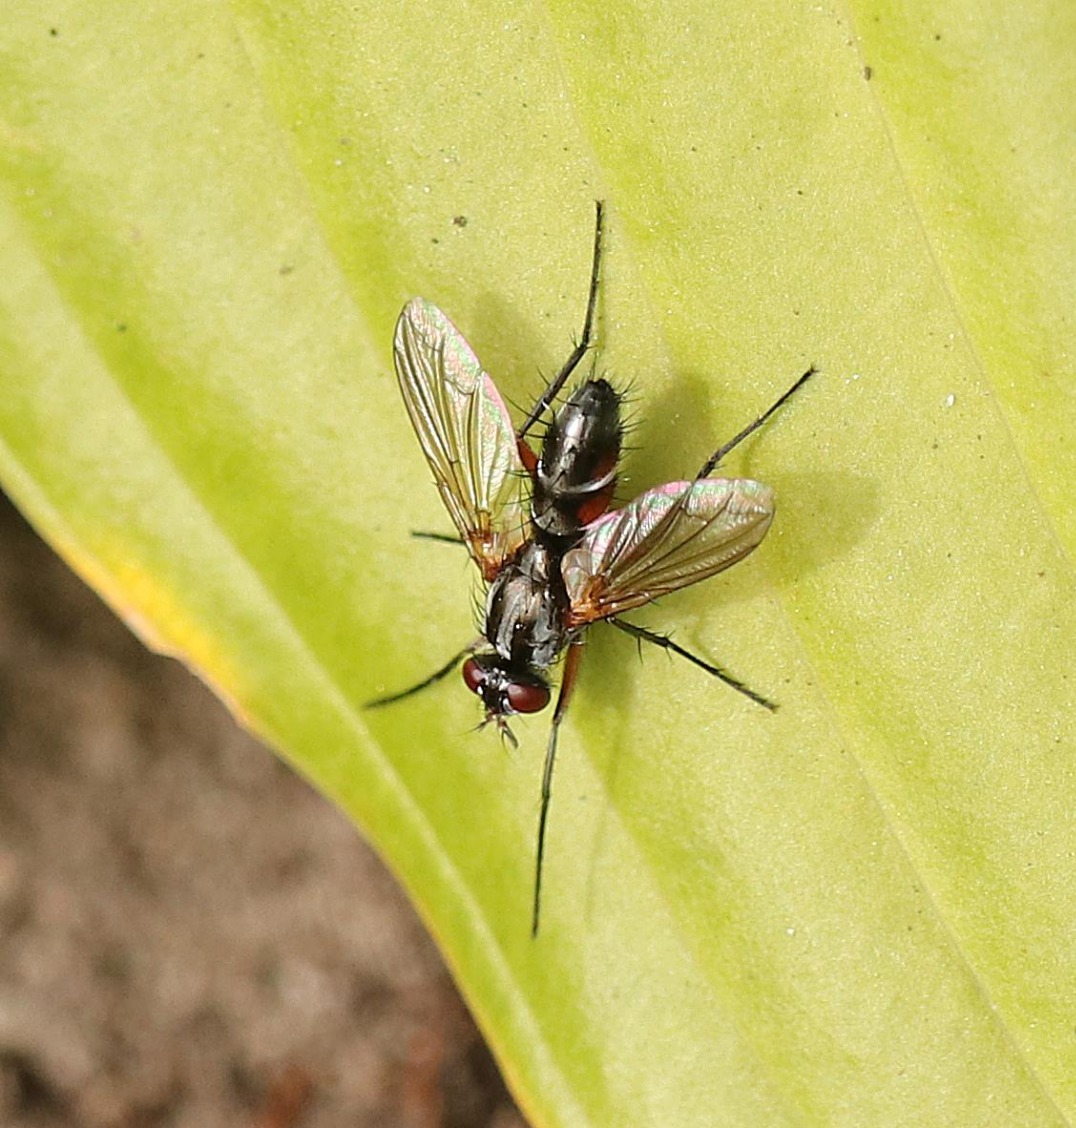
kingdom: Animalia
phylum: Arthropoda
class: Insecta
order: Diptera
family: Tachinidae
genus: Mintho
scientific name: Mintho rufiventris
